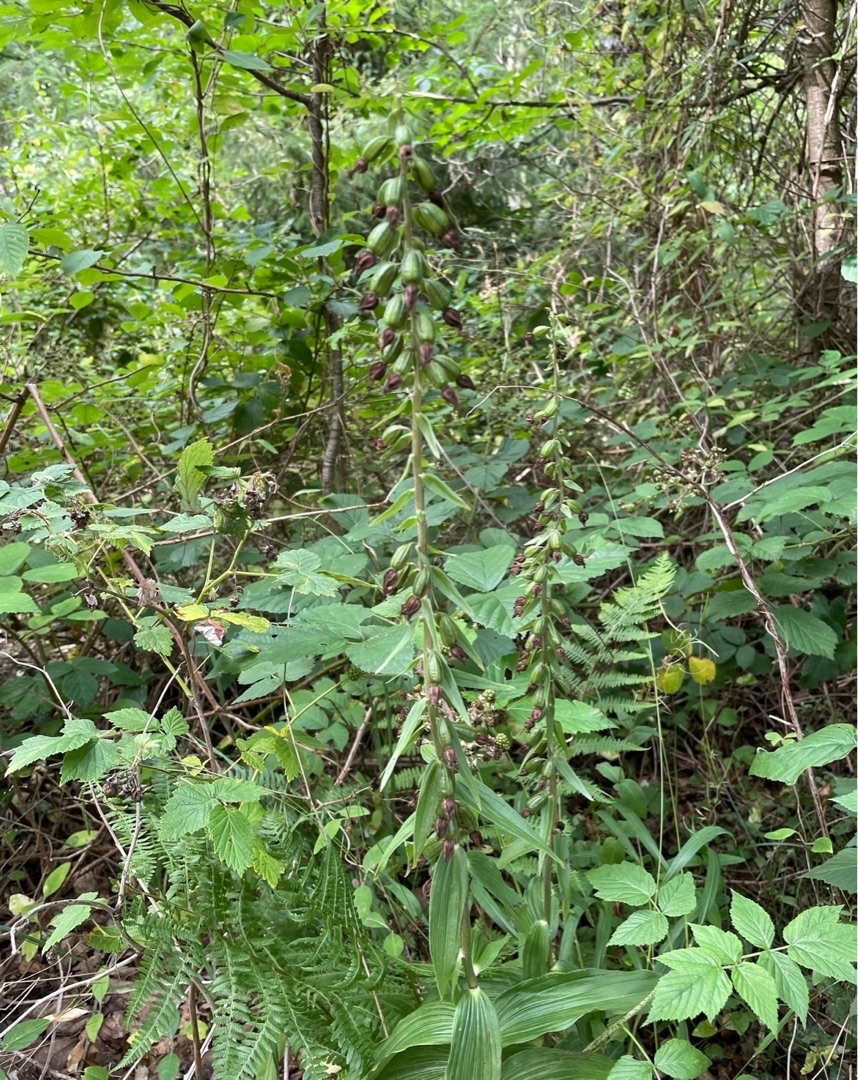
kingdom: Plantae
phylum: Tracheophyta
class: Liliopsida
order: Asparagales
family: Orchidaceae
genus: Epipactis
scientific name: Epipactis helleborine
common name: Skov-hullæbe
